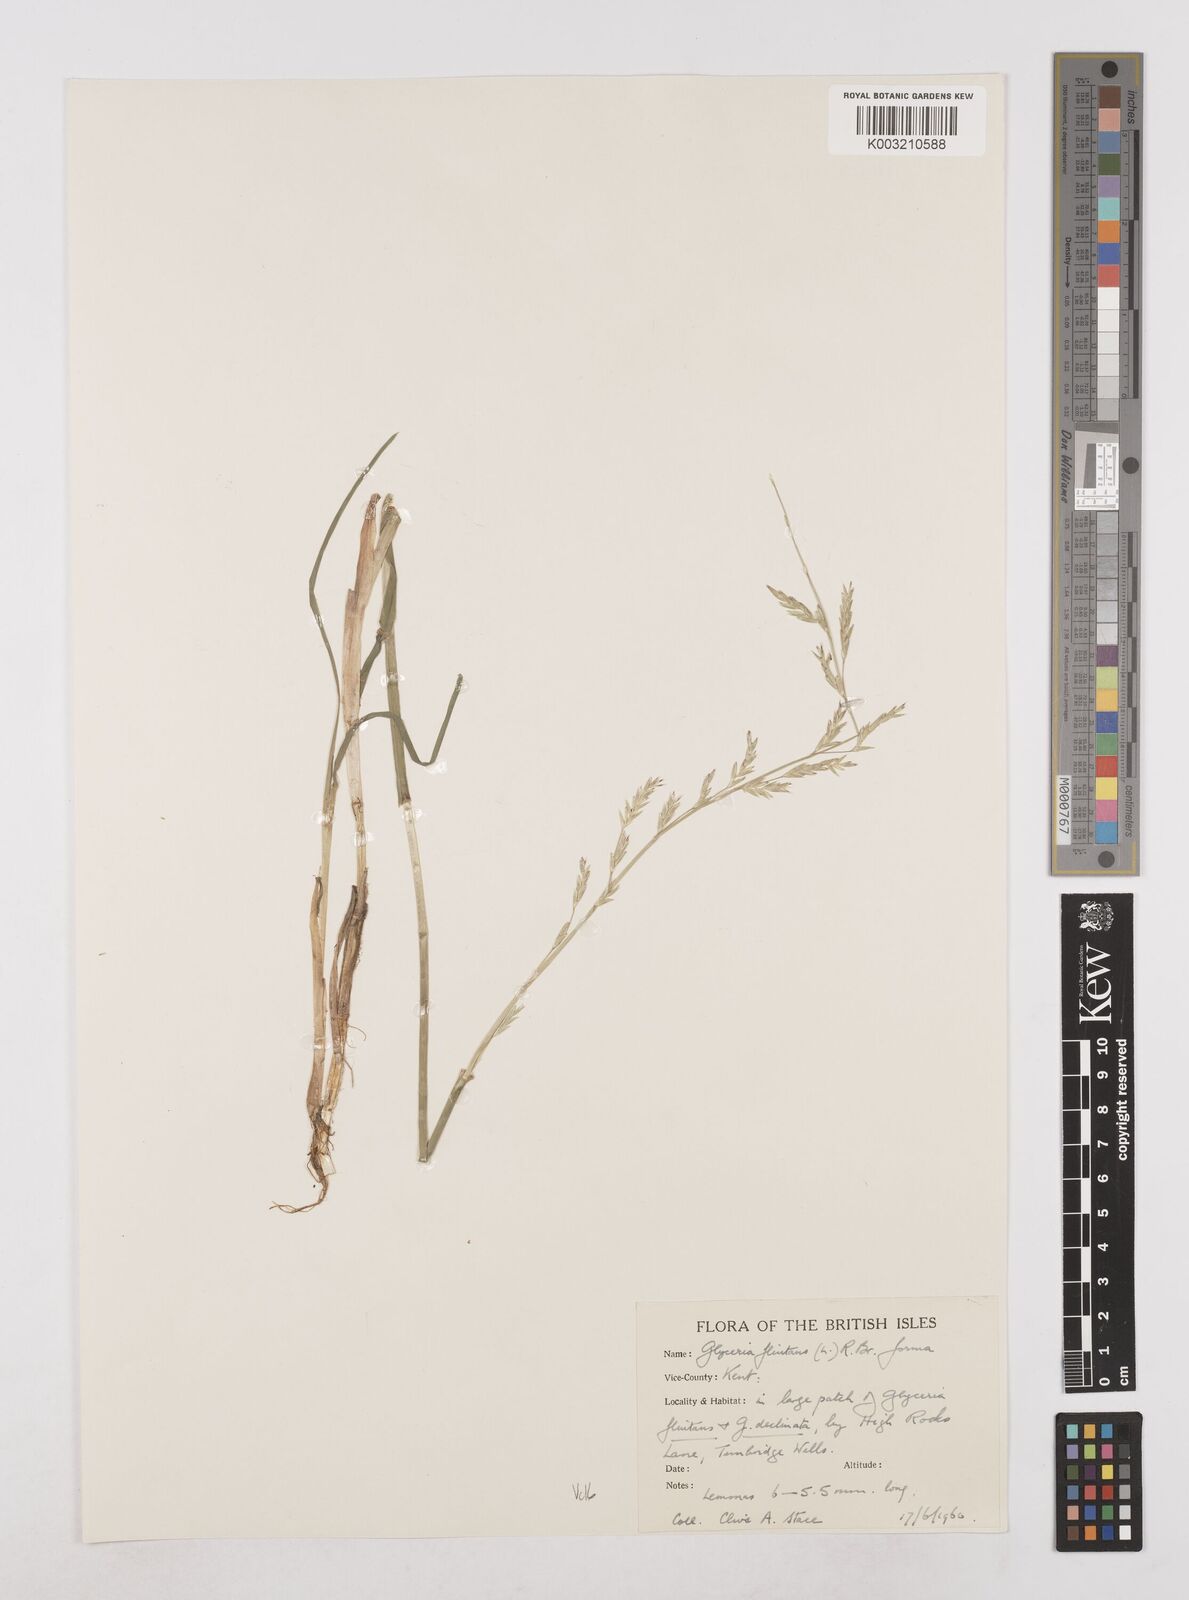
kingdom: Plantae
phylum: Tracheophyta
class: Liliopsida
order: Poales
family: Poaceae
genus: Glyceria
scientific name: Glyceria fluitans
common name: Floating sweet-grass
